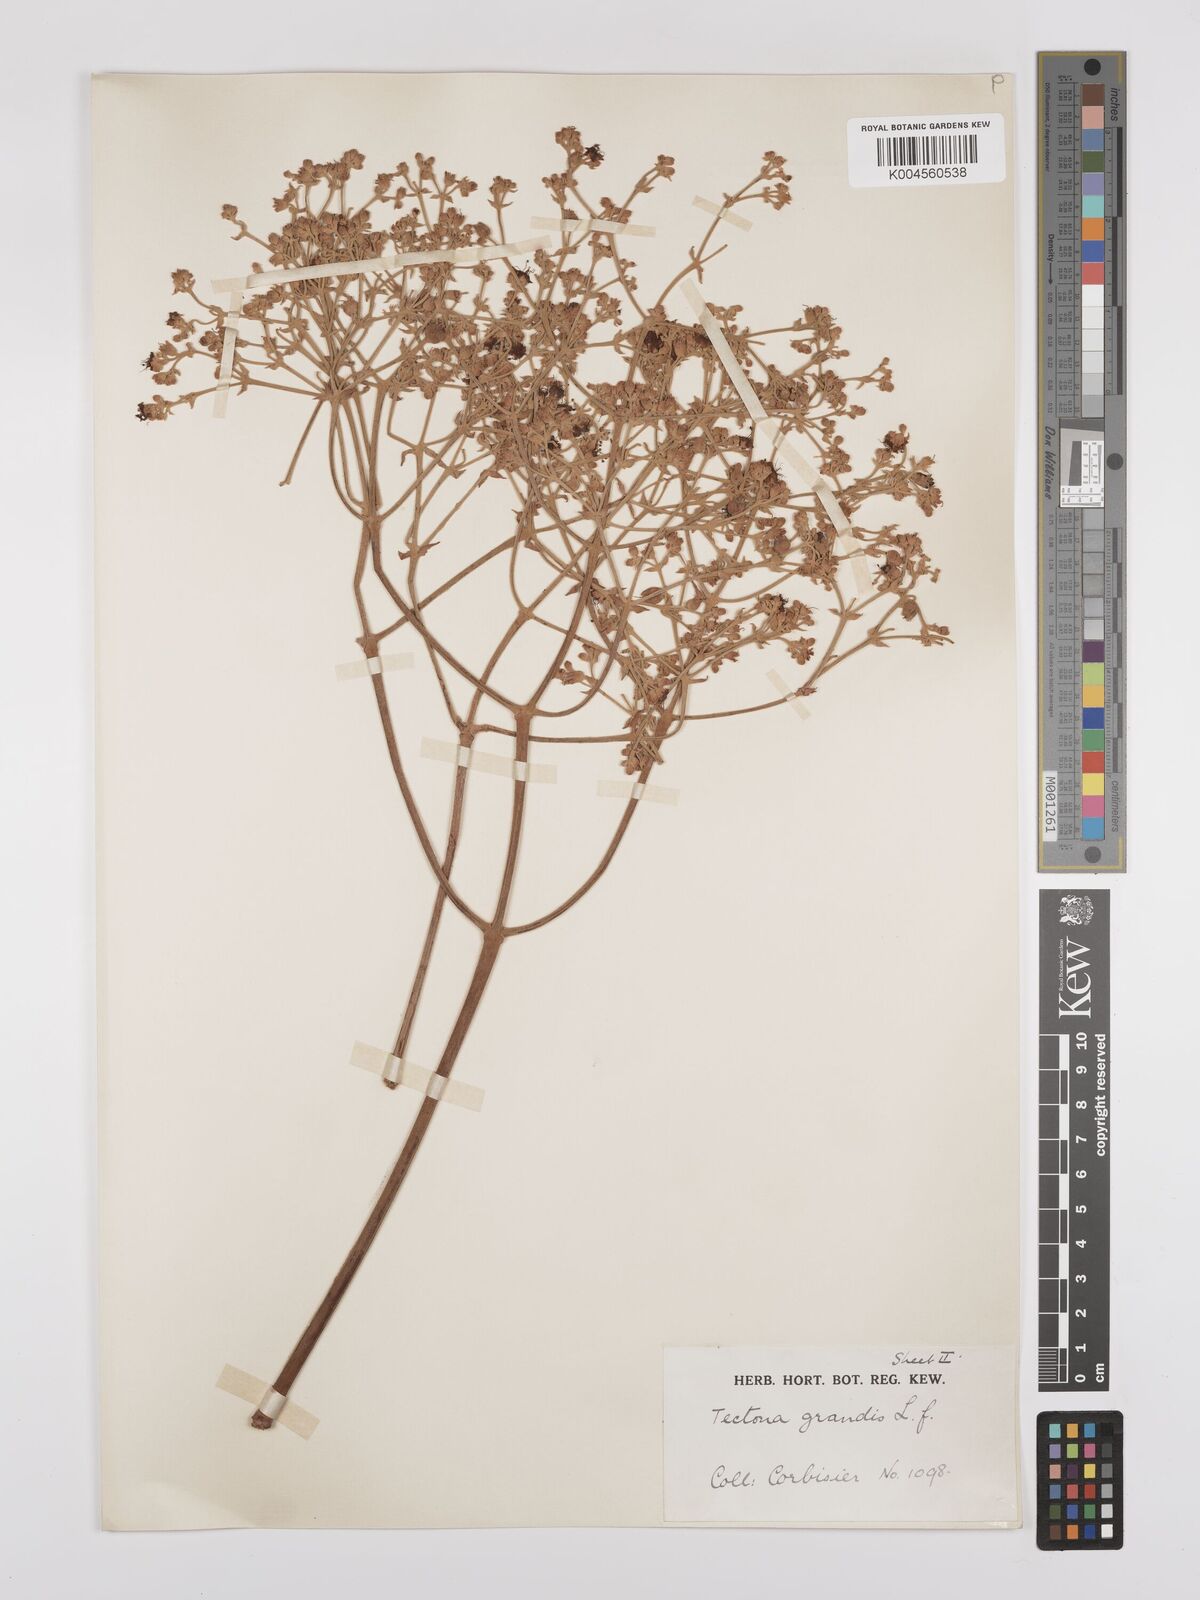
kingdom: Plantae
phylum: Tracheophyta
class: Magnoliopsida
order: Lamiales
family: Lamiaceae
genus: Tectona
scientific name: Tectona grandis
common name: Teak
